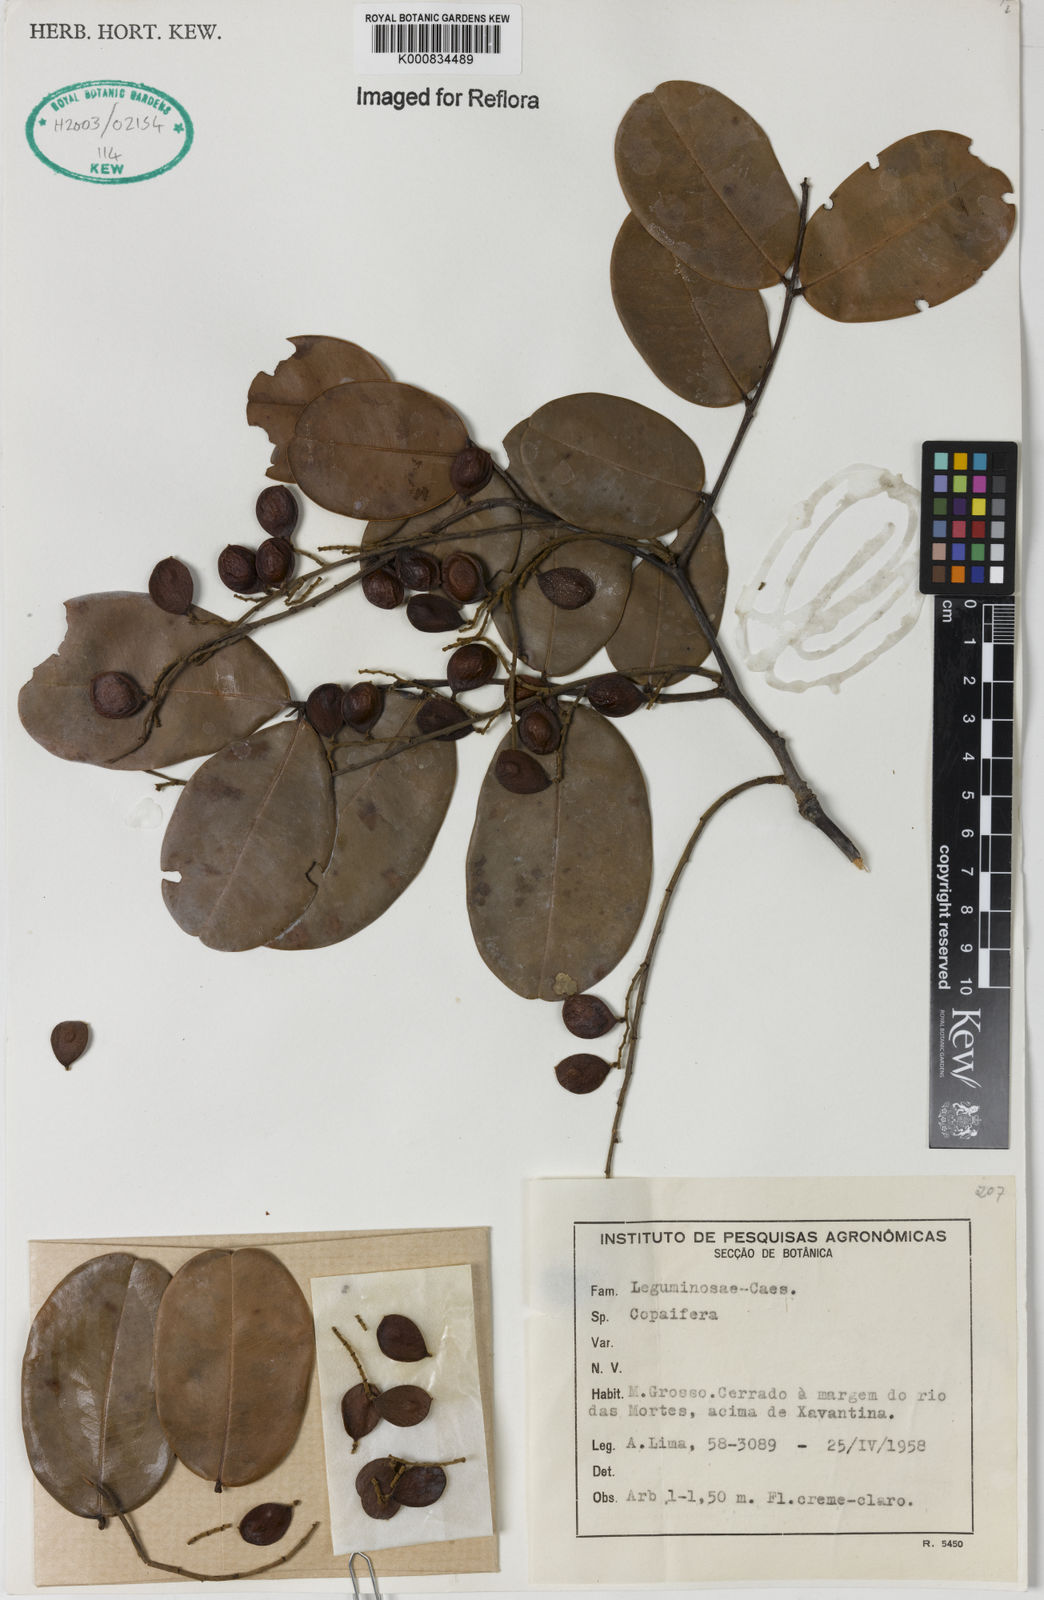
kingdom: Plantae
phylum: Tracheophyta
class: Magnoliopsida
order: Fabales
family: Fabaceae
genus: Copaifera
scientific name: Copaifera
